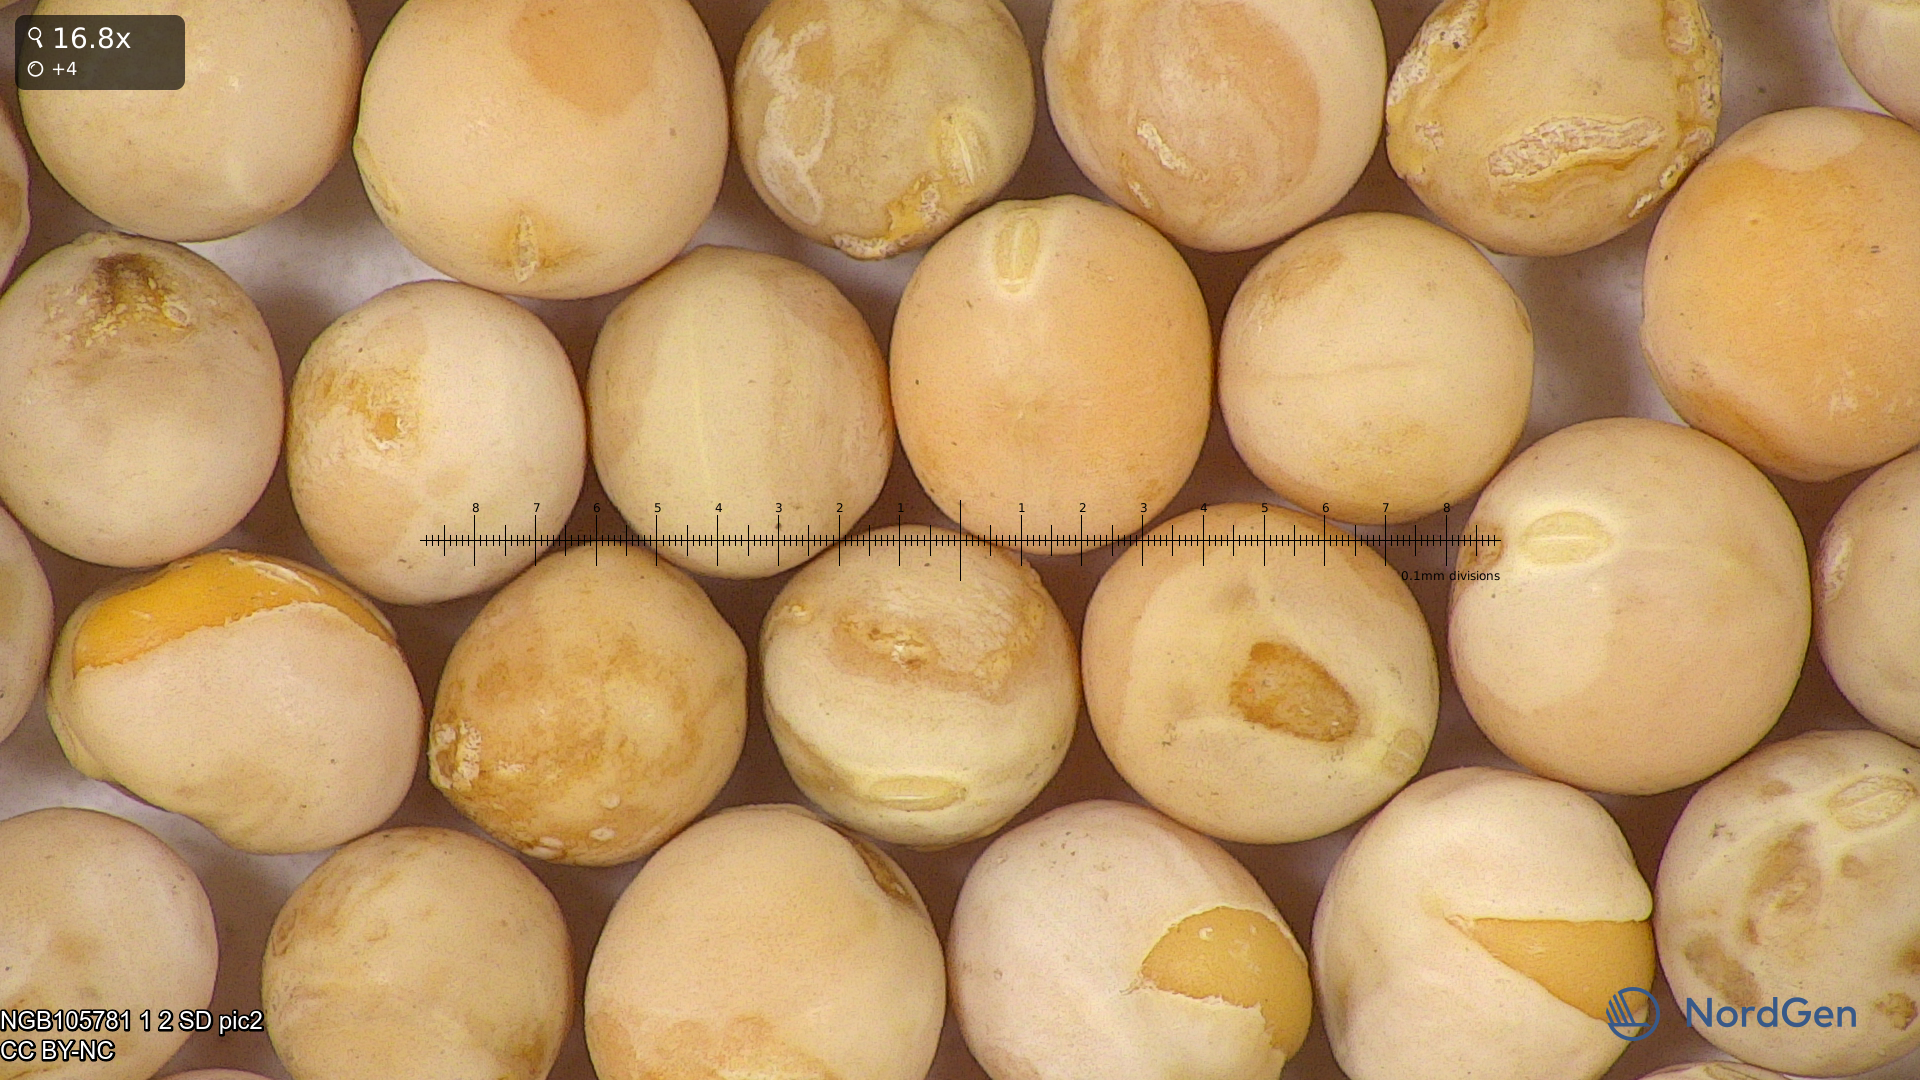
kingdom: Plantae
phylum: Tracheophyta
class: Magnoliopsida
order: Fabales
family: Fabaceae
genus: Lathyrus
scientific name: Lathyrus oleraceus
